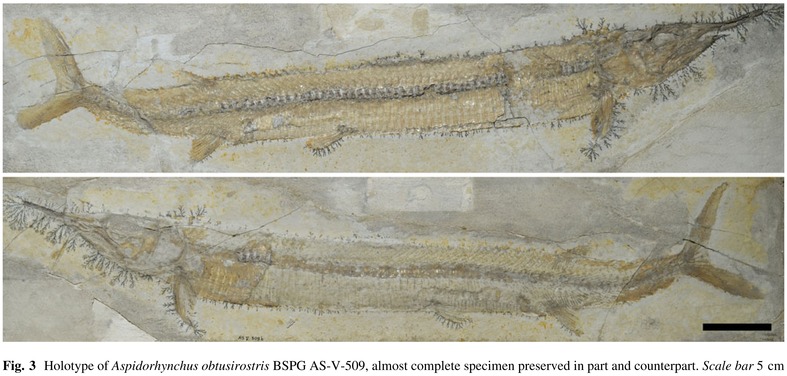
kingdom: Animalia
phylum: Chordata
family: Aspidorhynchidae
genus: Aspidorhynchus
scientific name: Aspidorhynchus acutirostris
